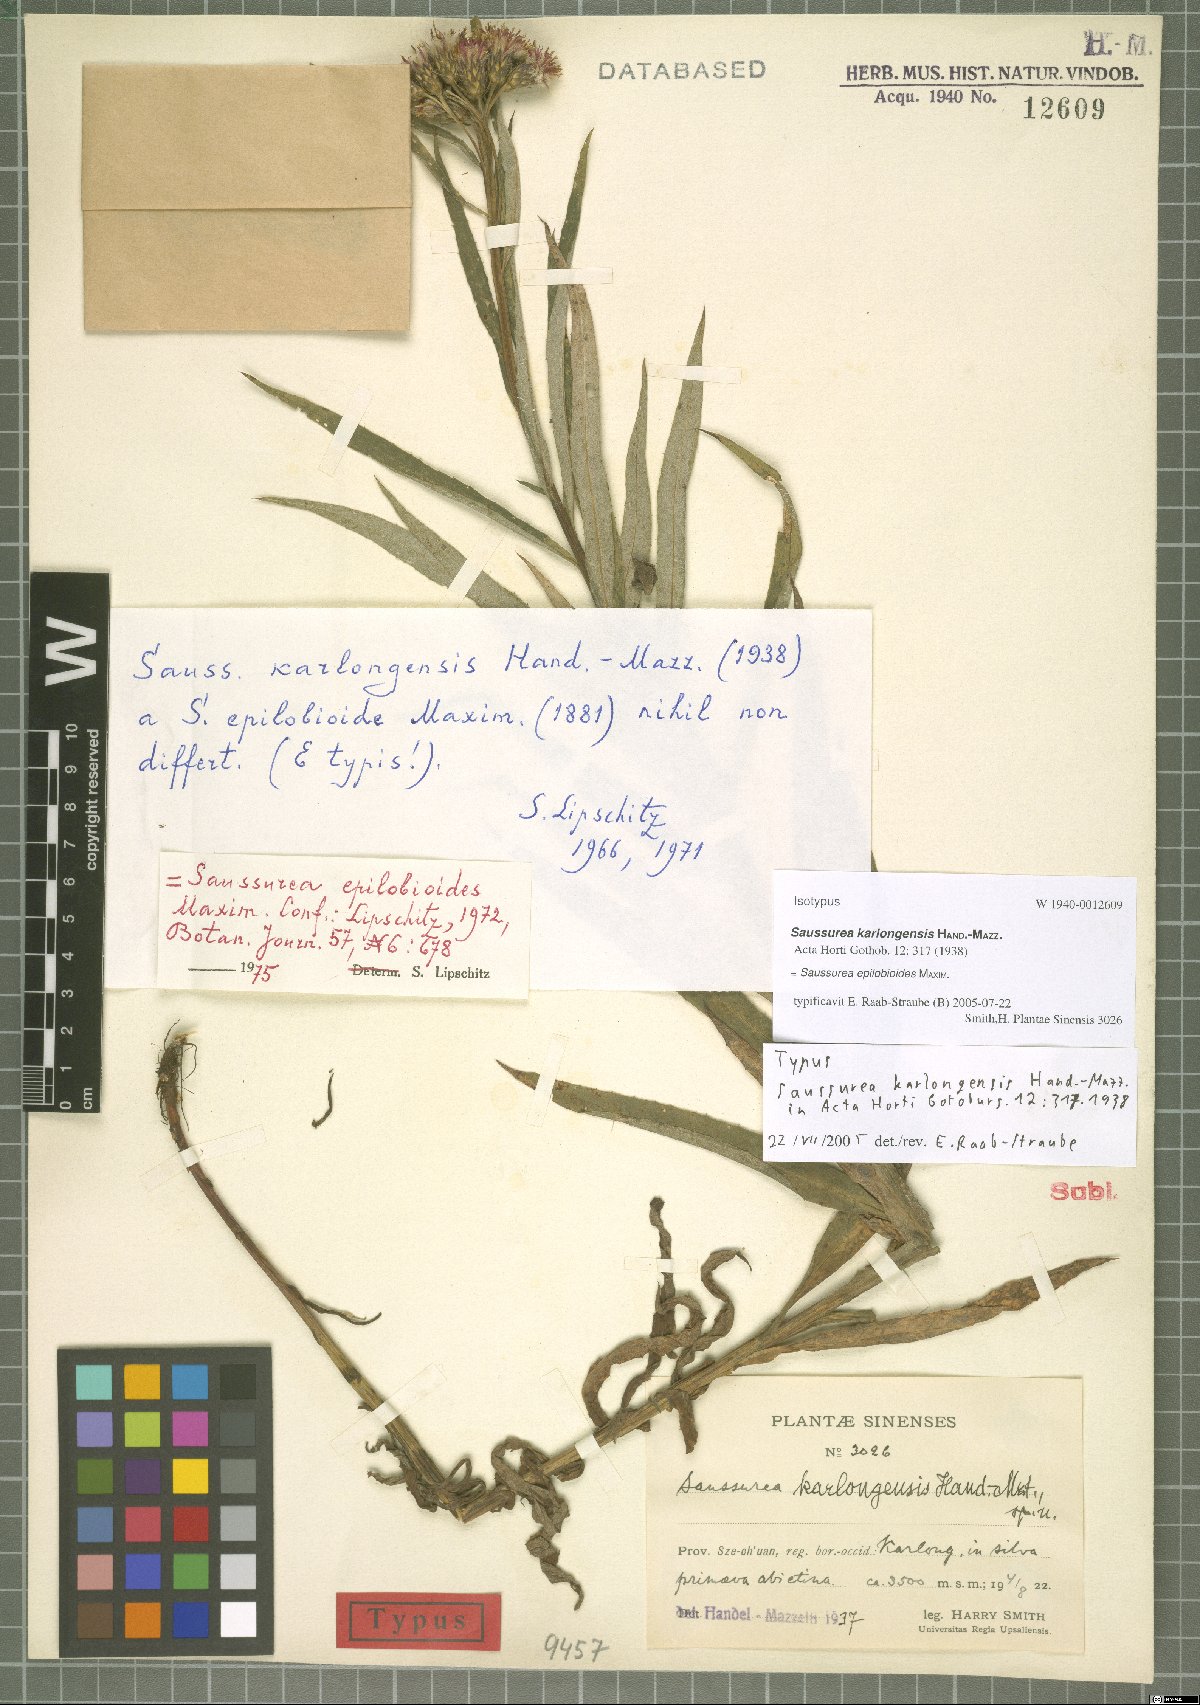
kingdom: Plantae
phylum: Tracheophyta
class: Magnoliopsida
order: Asterales
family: Asteraceae
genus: Saussurea
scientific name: Saussurea epilobioides
